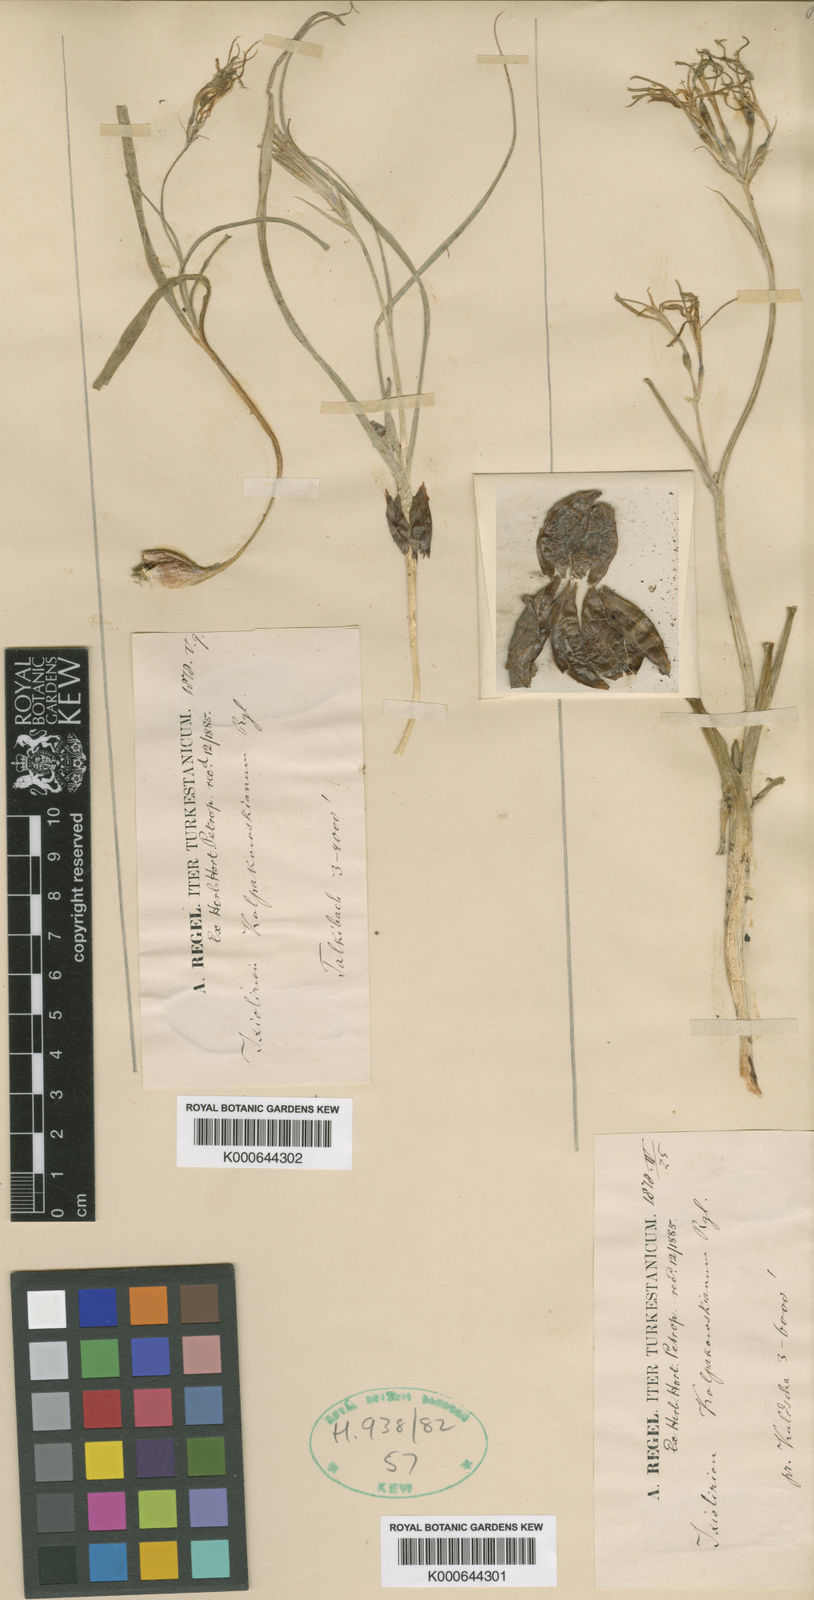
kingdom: Plantae
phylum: Tracheophyta
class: Liliopsida
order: Asparagales
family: Ixioliriaceae
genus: Ixiolirion
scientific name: Ixiolirion tataricum
